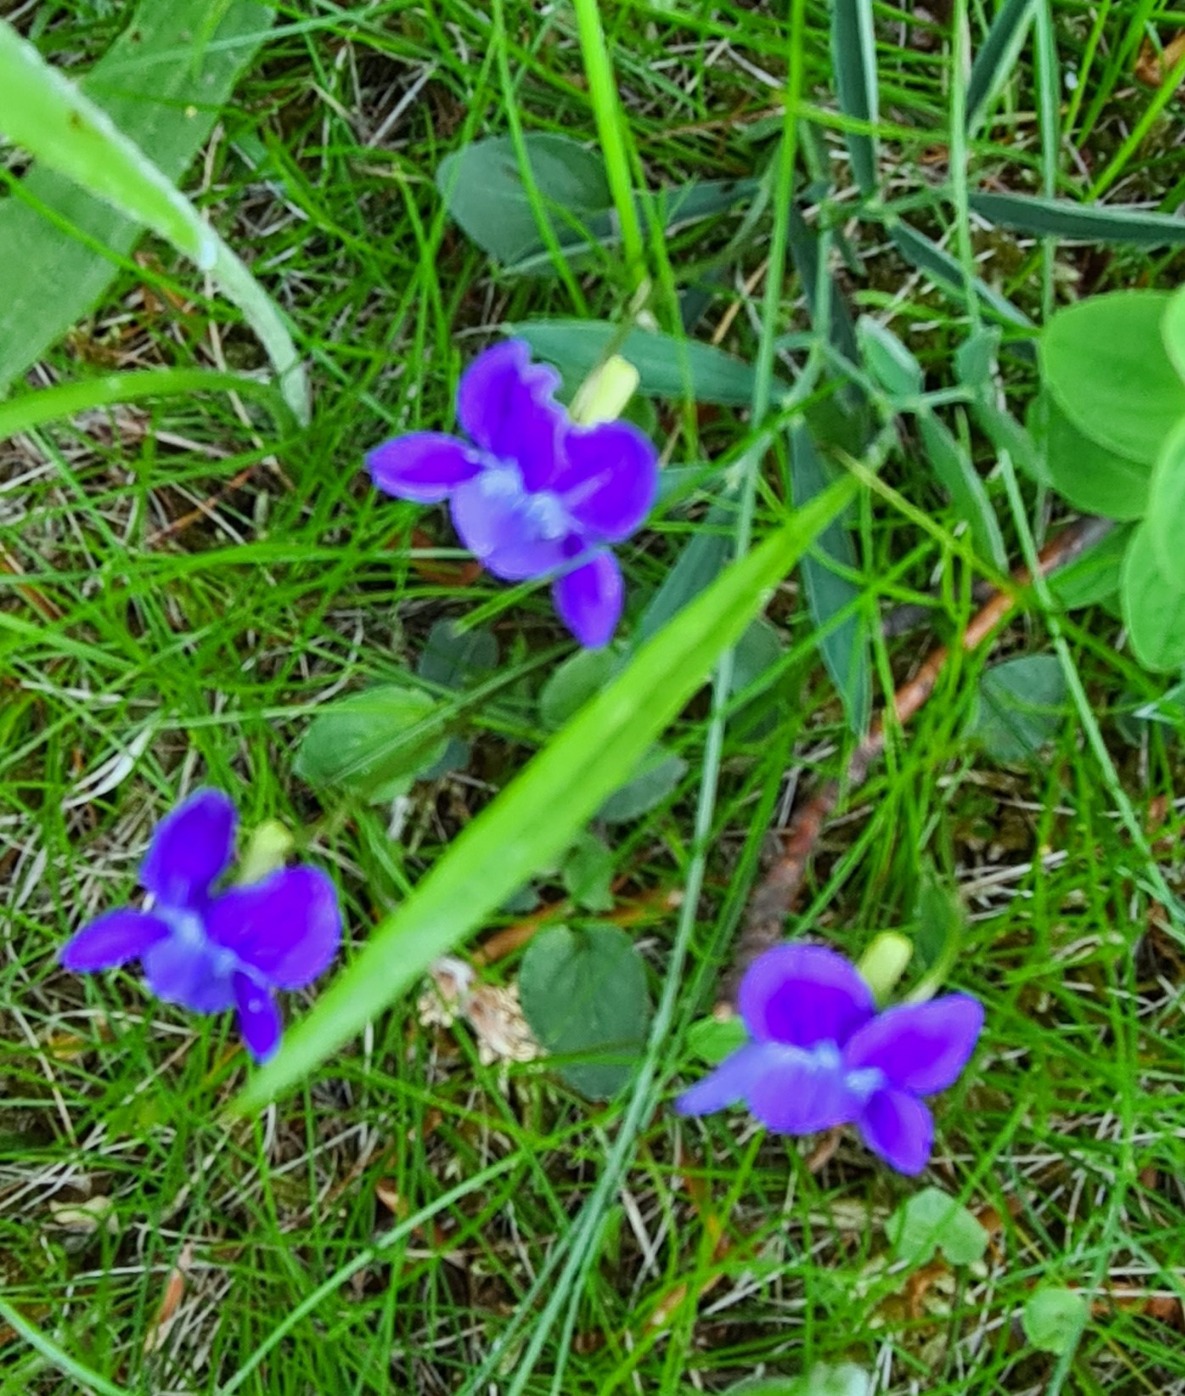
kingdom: Plantae
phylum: Tracheophyta
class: Magnoliopsida
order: Malpighiales
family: Violaceae
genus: Viola
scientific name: Viola canina
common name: Hunde-viol
